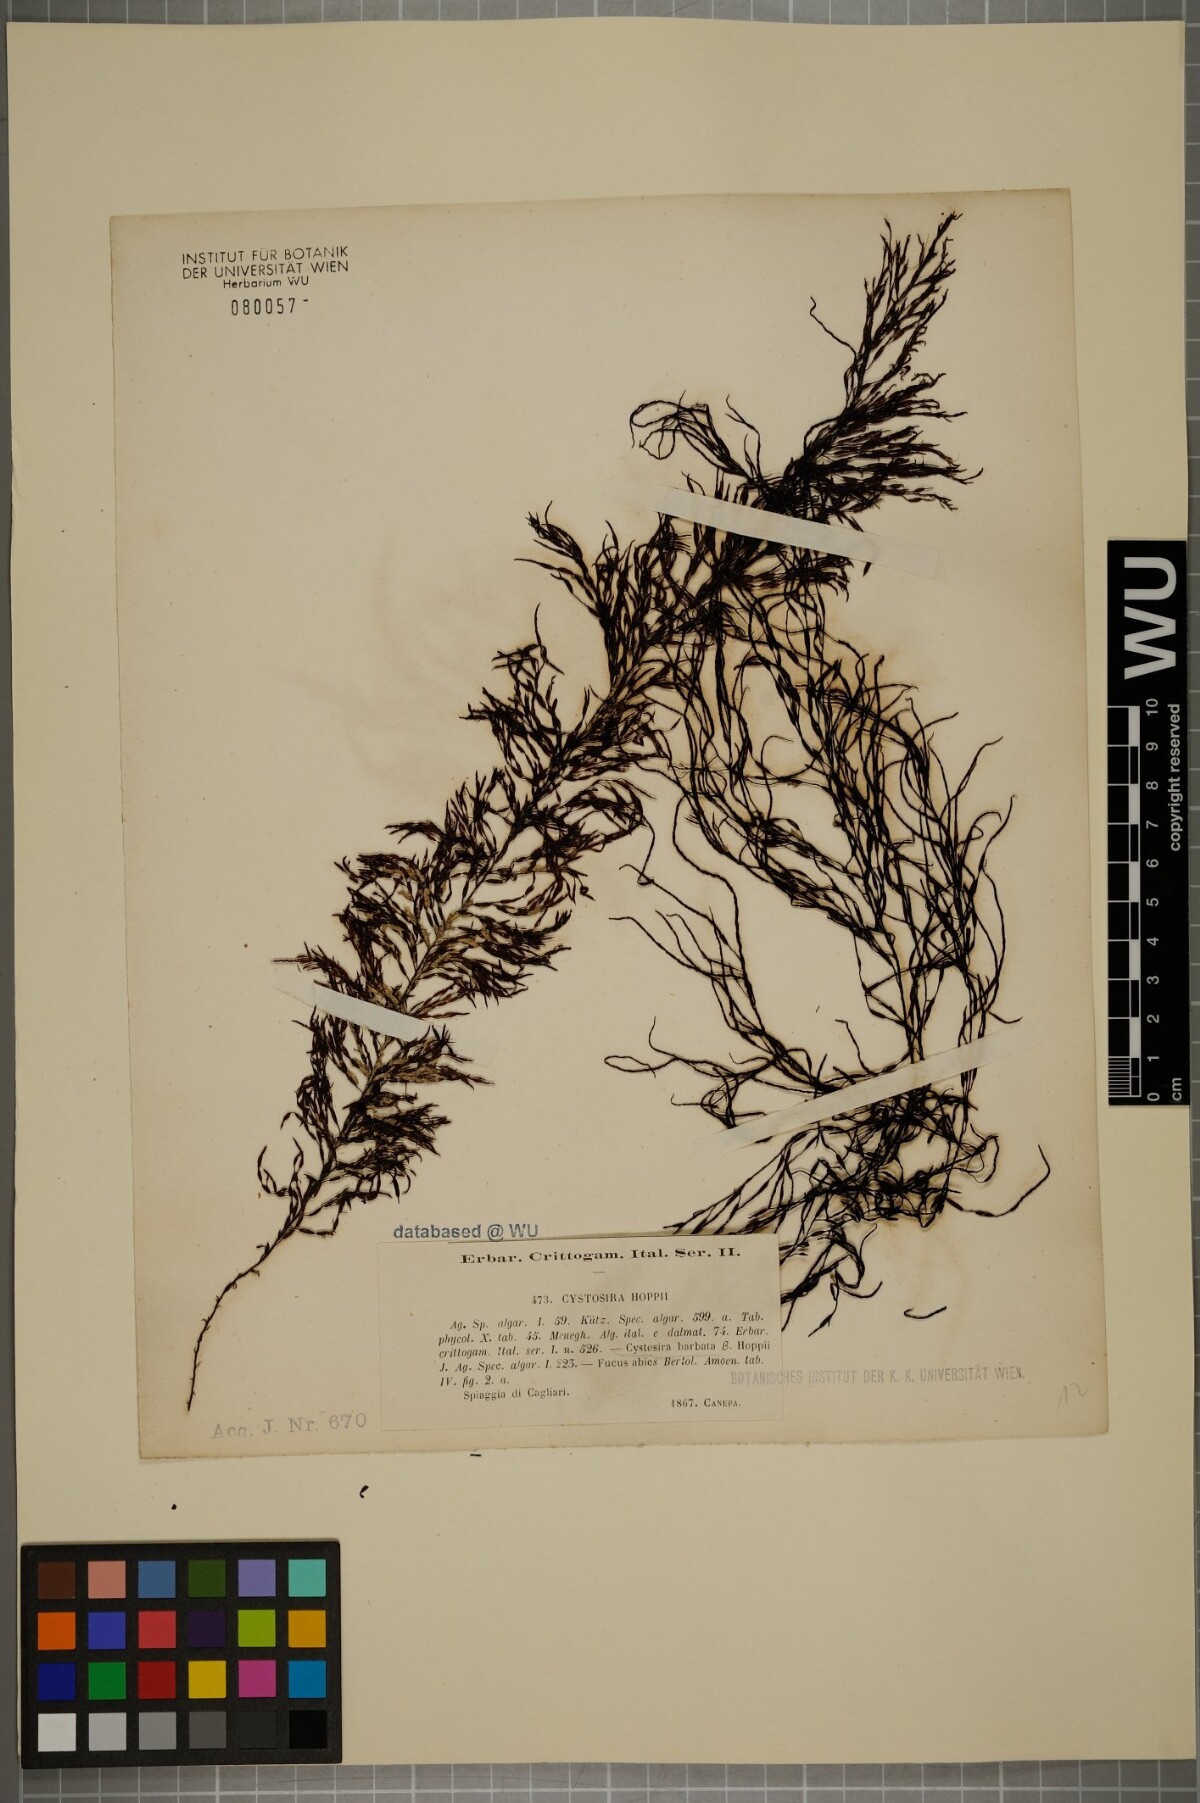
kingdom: Chromista
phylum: Ochrophyta
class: Phaeophyceae
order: Fucales
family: Sargassaceae
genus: Cystoseira
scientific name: Cystoseira Gongolaria barbata
